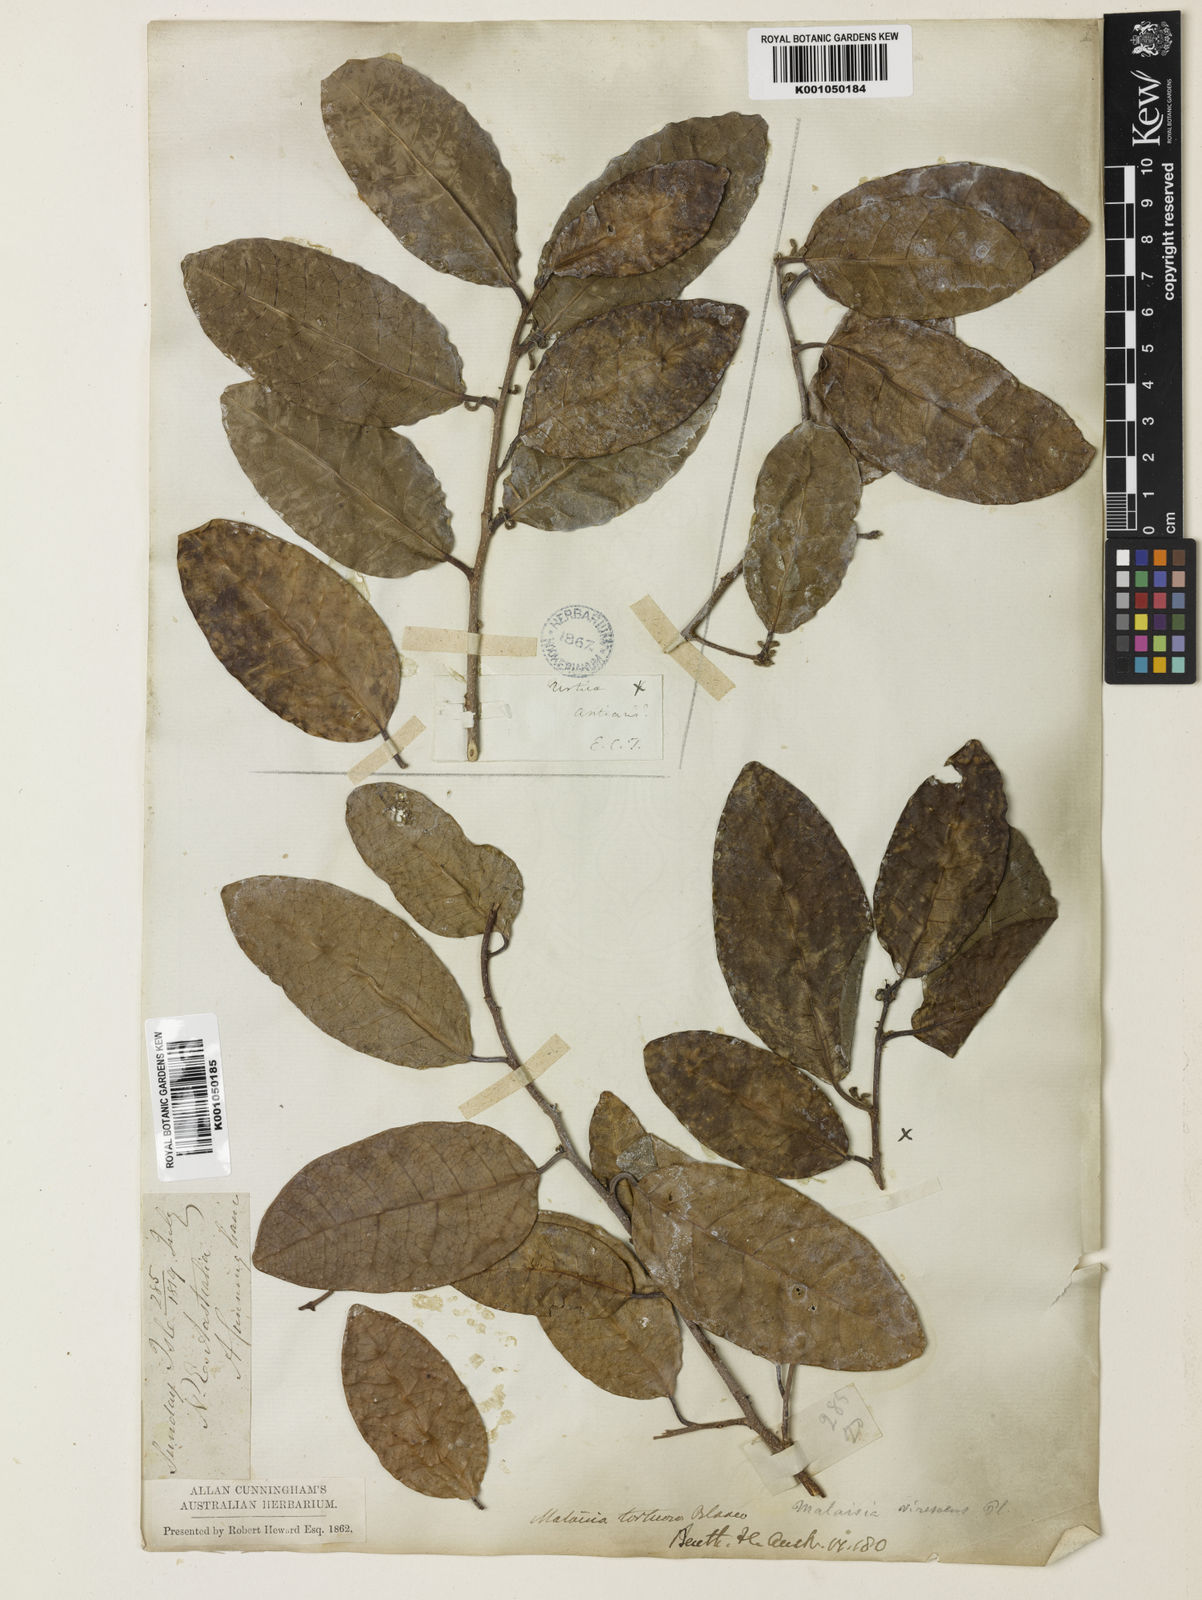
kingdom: Plantae
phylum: Tracheophyta
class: Magnoliopsida
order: Rosales
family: Moraceae
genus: Malaisia
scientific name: Malaisia scandens
